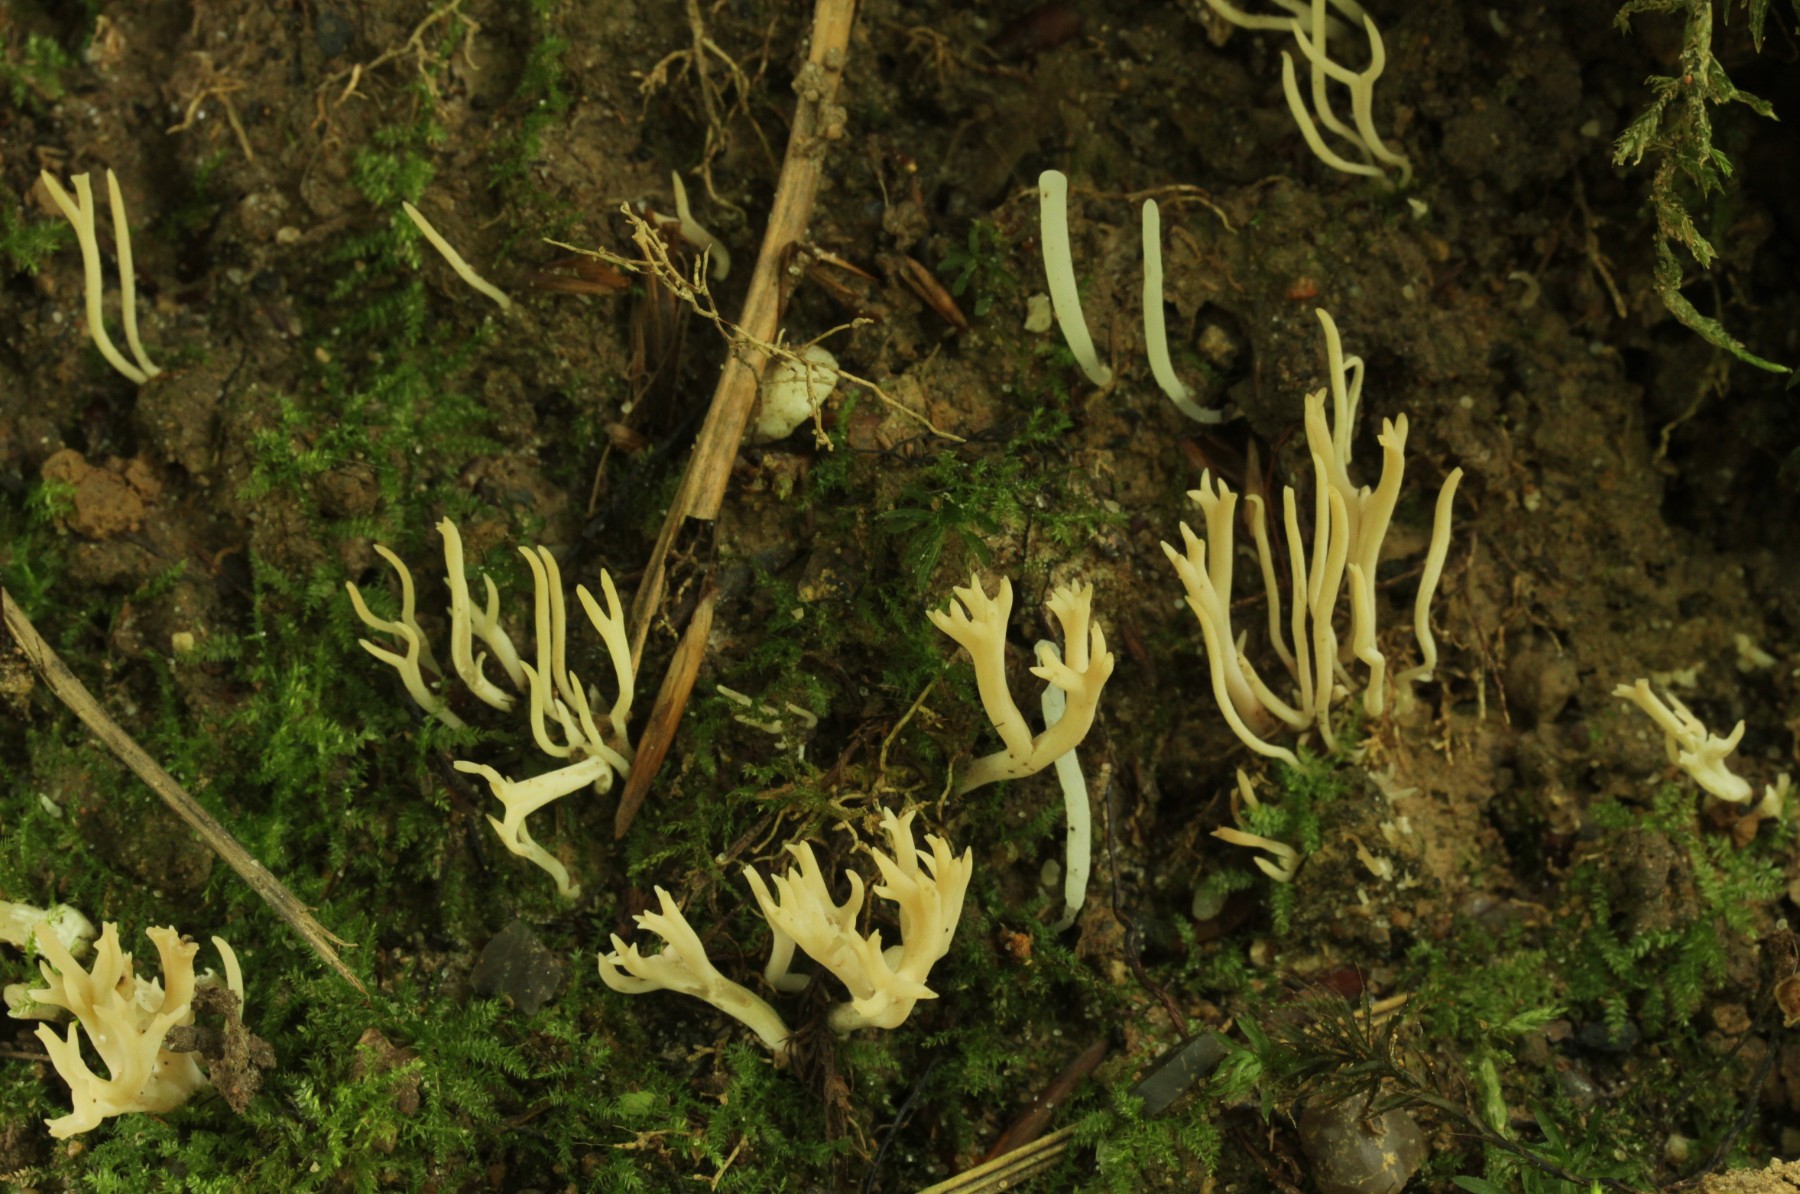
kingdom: Fungi
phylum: Basidiomycota
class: Agaricomycetes
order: Agaricales
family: Clavariaceae
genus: Ramariopsis
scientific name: Ramariopsis subtilis
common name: Slender coral
